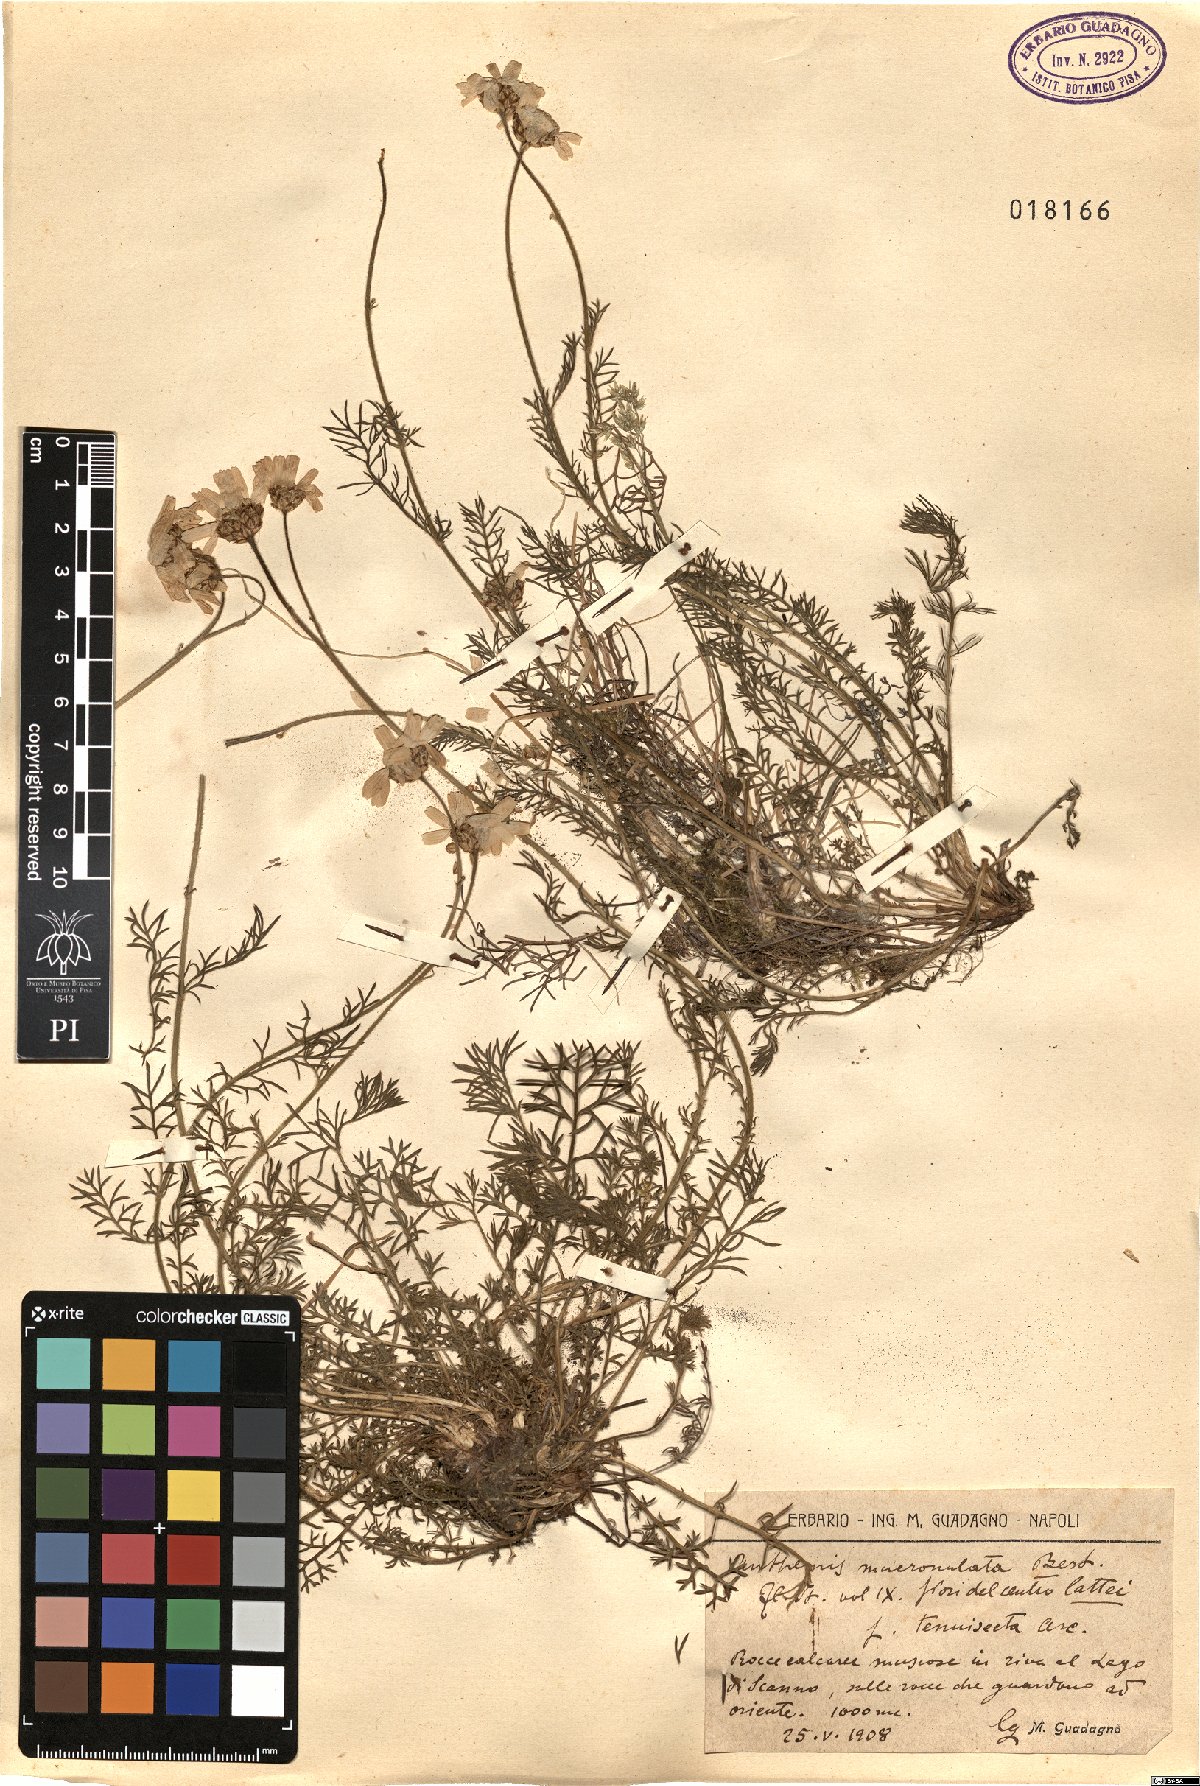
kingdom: Plantae
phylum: Tracheophyta
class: Magnoliopsida
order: Asterales
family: Asteraceae
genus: Achillea
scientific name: Achillea barrelieri
